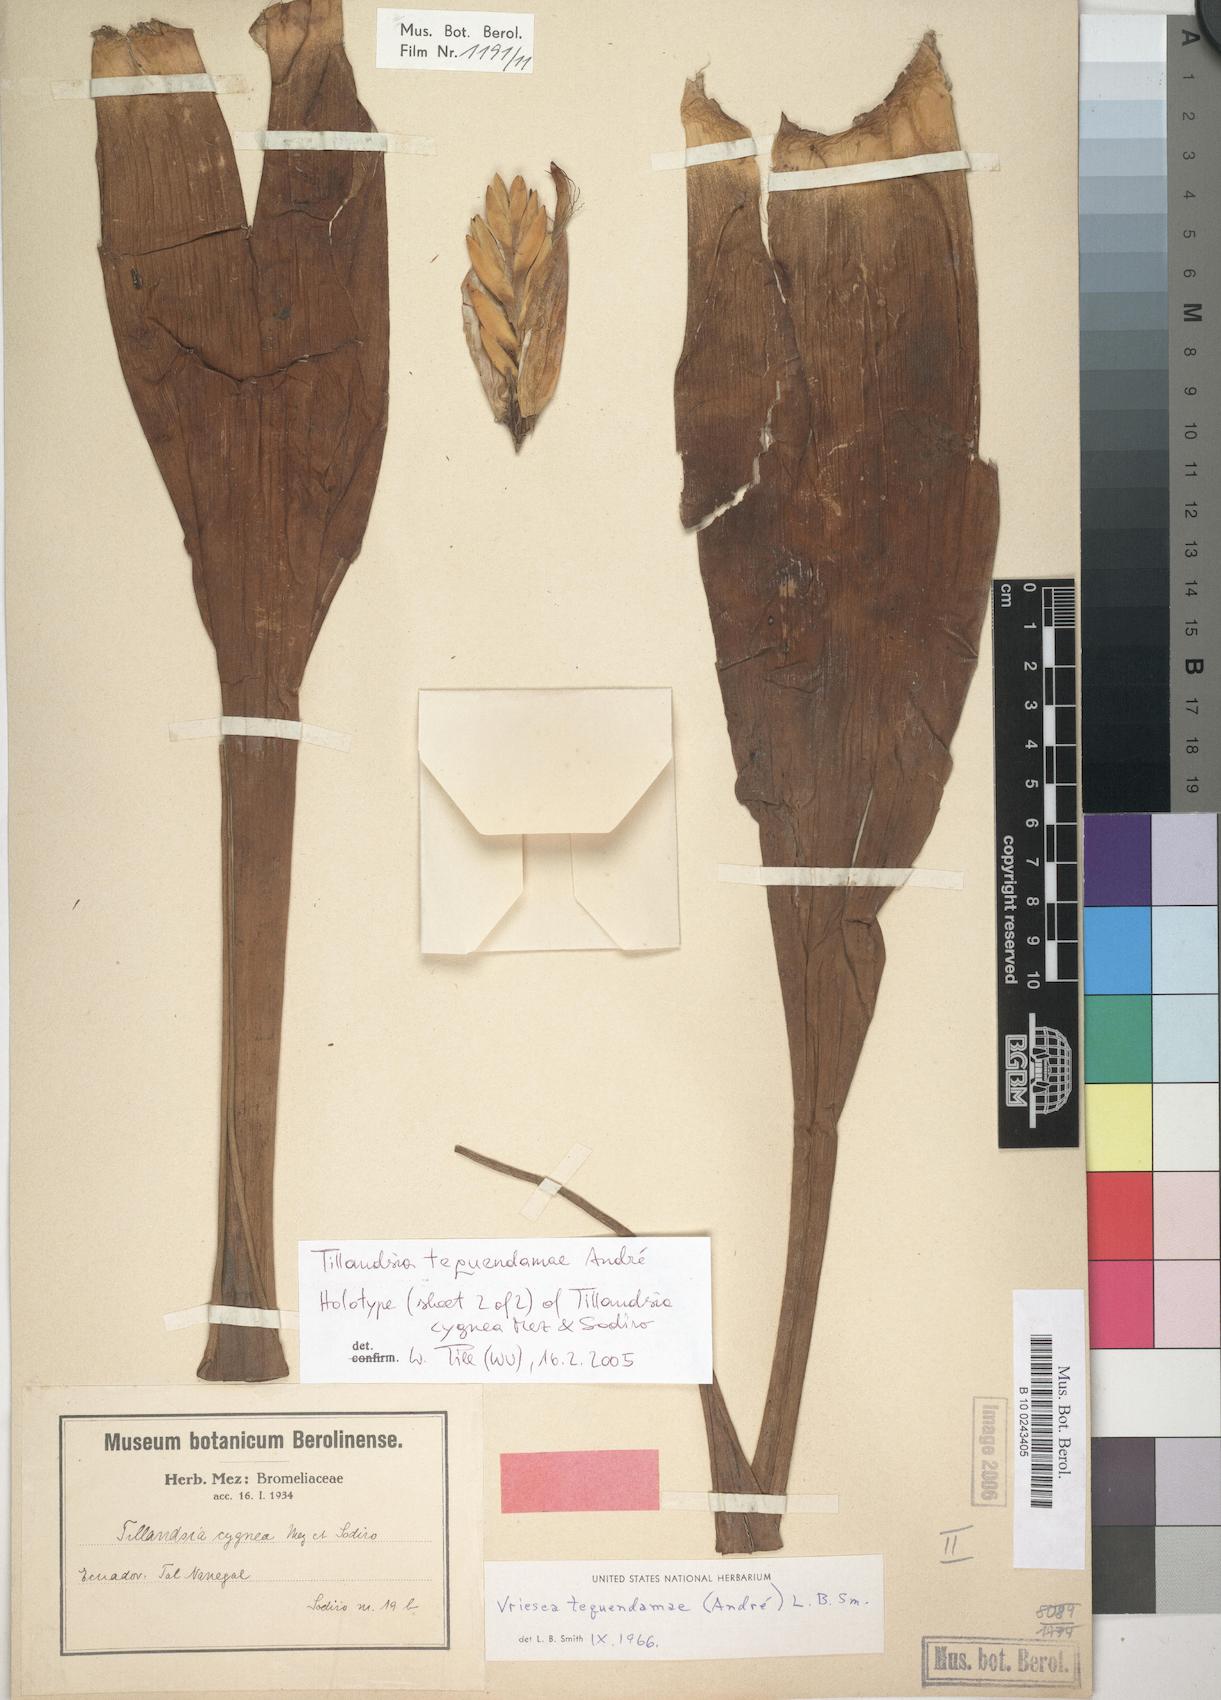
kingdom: Plantae
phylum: Tracheophyta
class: Liliopsida
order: Poales
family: Bromeliaceae
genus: Vriesea
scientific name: Vriesea tequendamae
